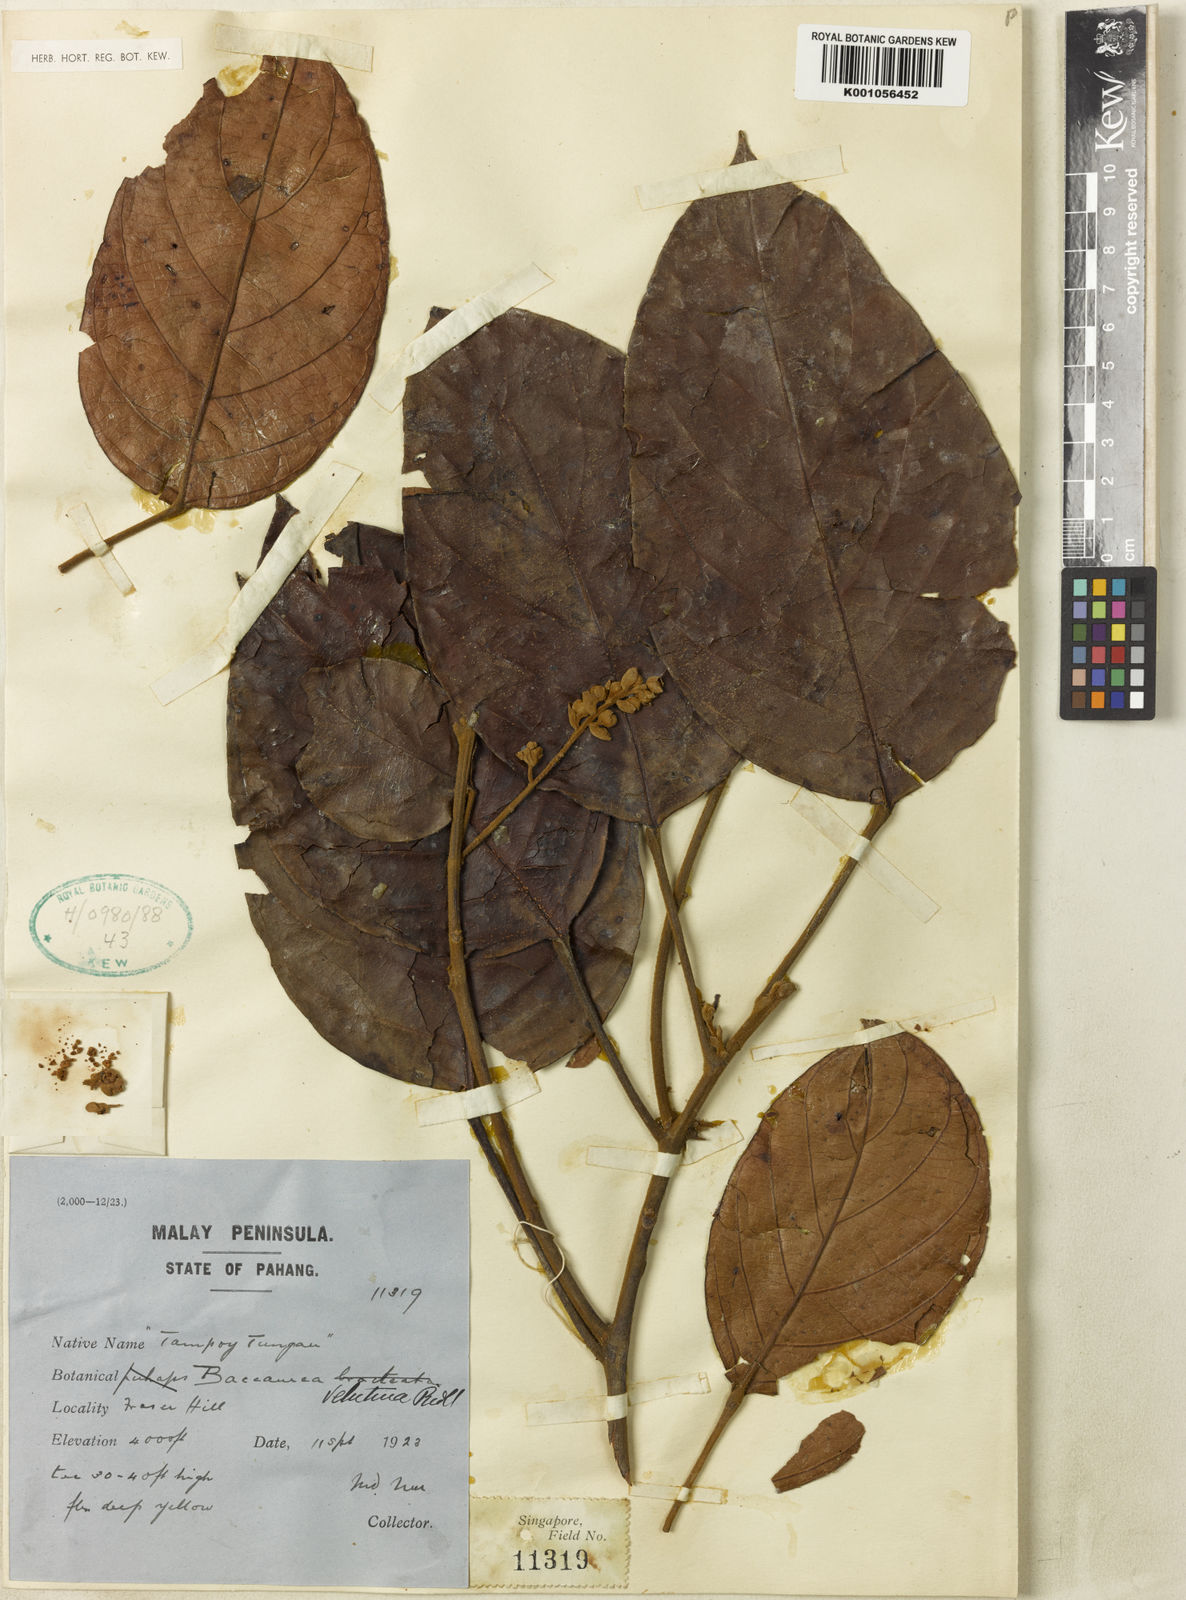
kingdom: Plantae
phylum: Tracheophyta
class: Magnoliopsida
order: Malpighiales
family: Phyllanthaceae
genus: Baccaurea
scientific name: Baccaurea velutina
